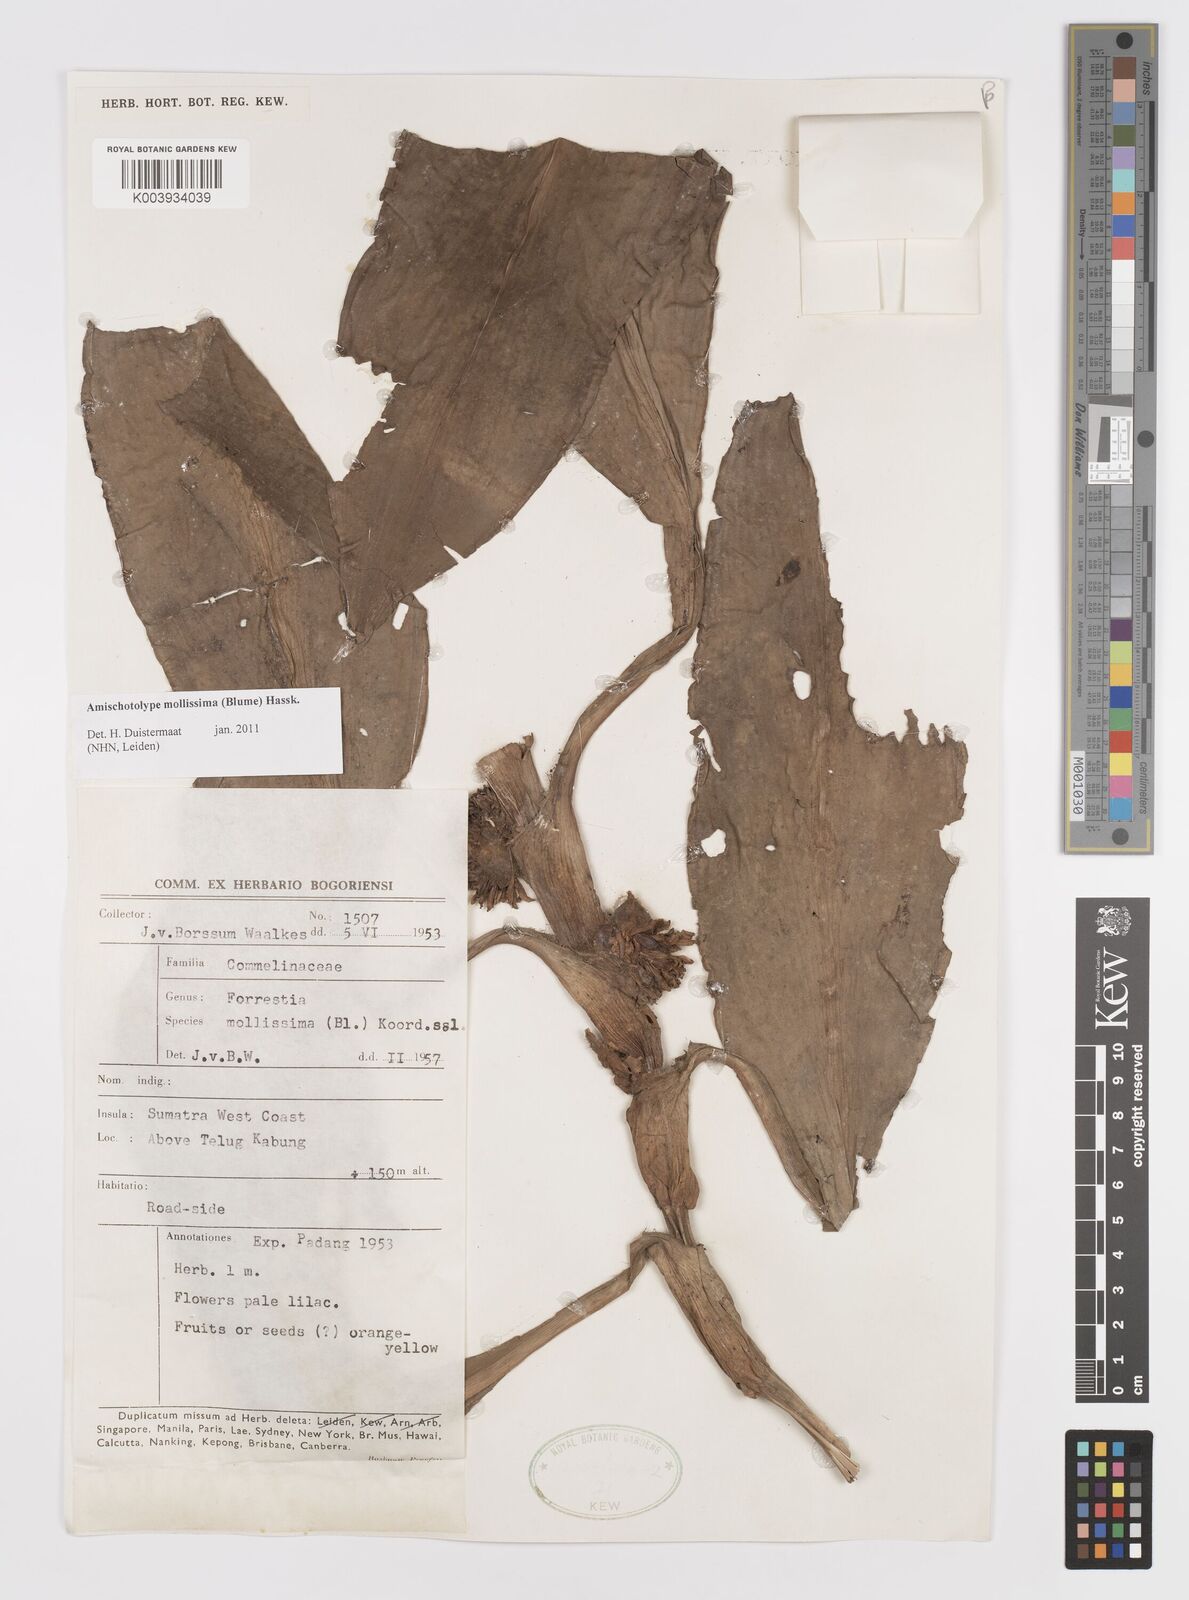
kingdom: Plantae
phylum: Tracheophyta
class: Liliopsida
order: Commelinales
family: Commelinaceae
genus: Amischotolype
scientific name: Amischotolype mollissima
